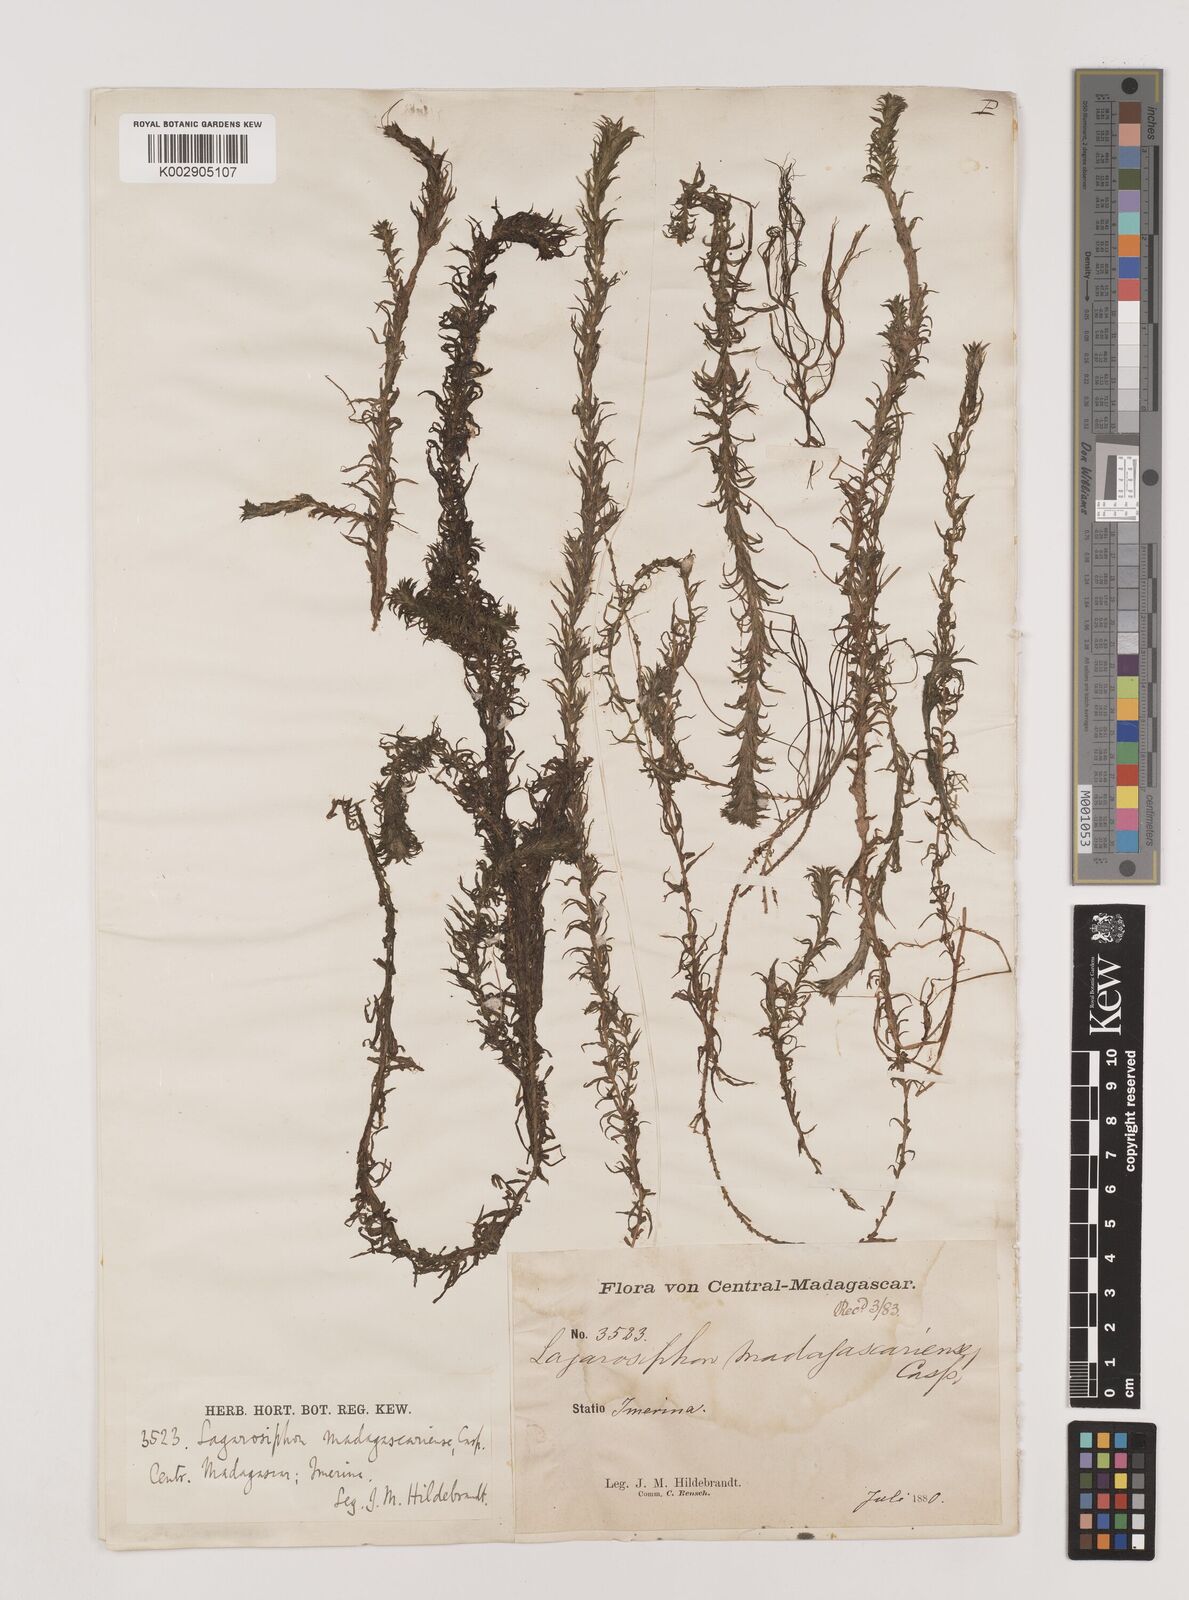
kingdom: Plantae
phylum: Tracheophyta
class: Liliopsida
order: Alismatales
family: Hydrocharitaceae
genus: Lagarosiphon
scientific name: Lagarosiphon madagascariensis
